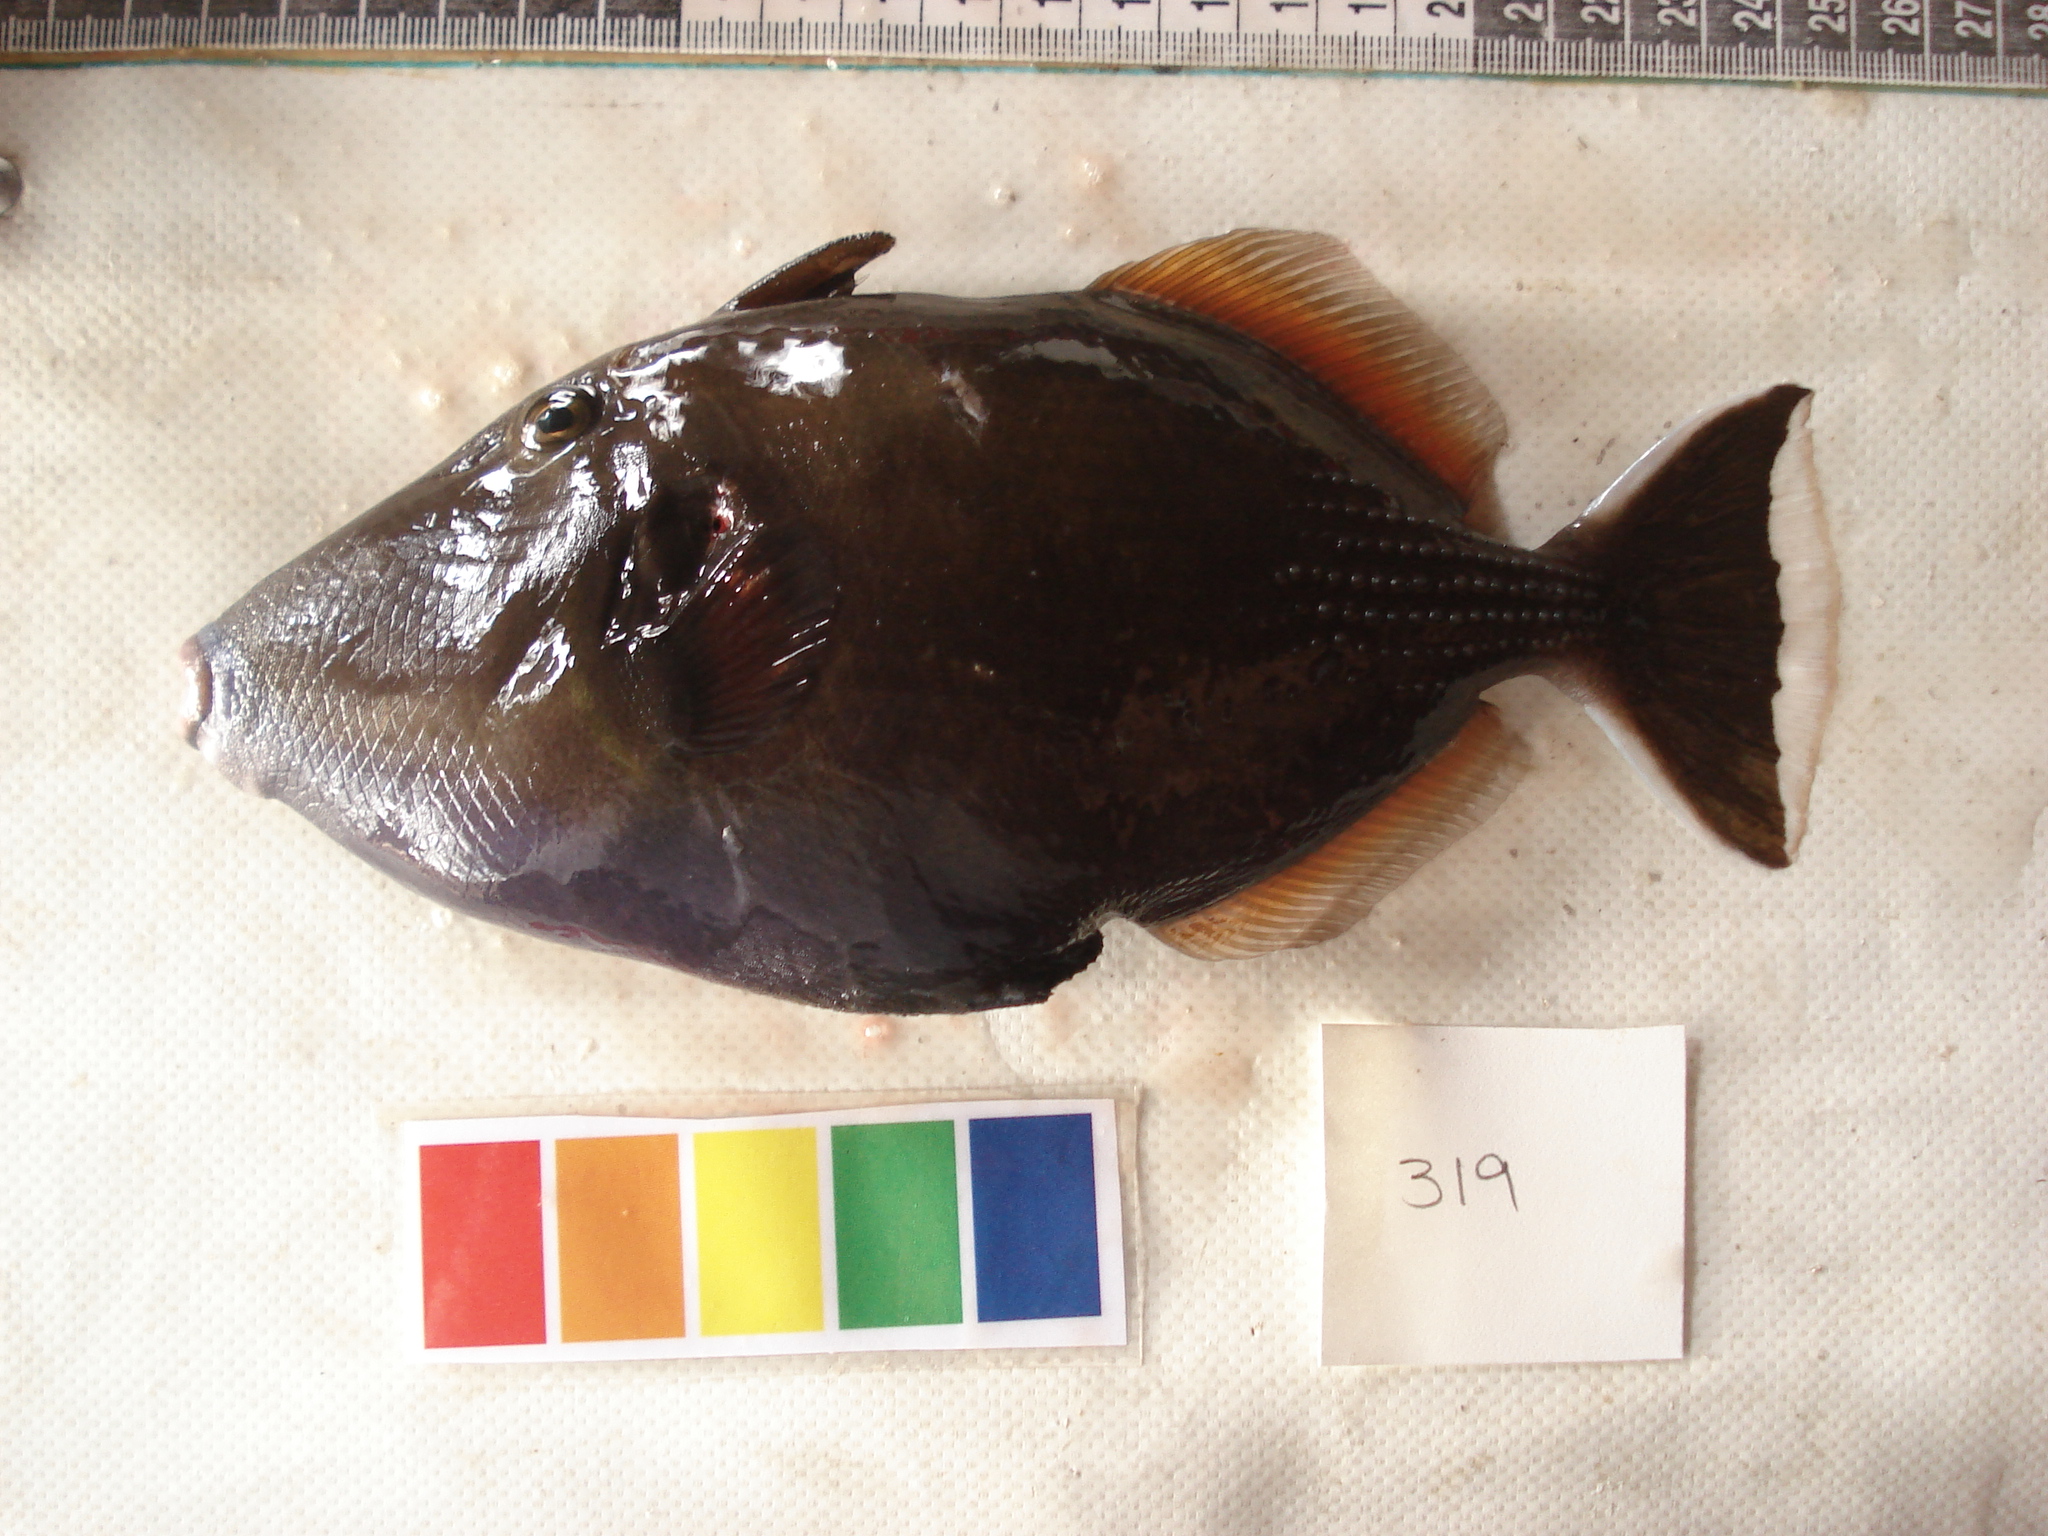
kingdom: Animalia
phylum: Chordata
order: Tetraodontiformes
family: Balistidae
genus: Sufflamen
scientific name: Sufflamen chrysopterum
